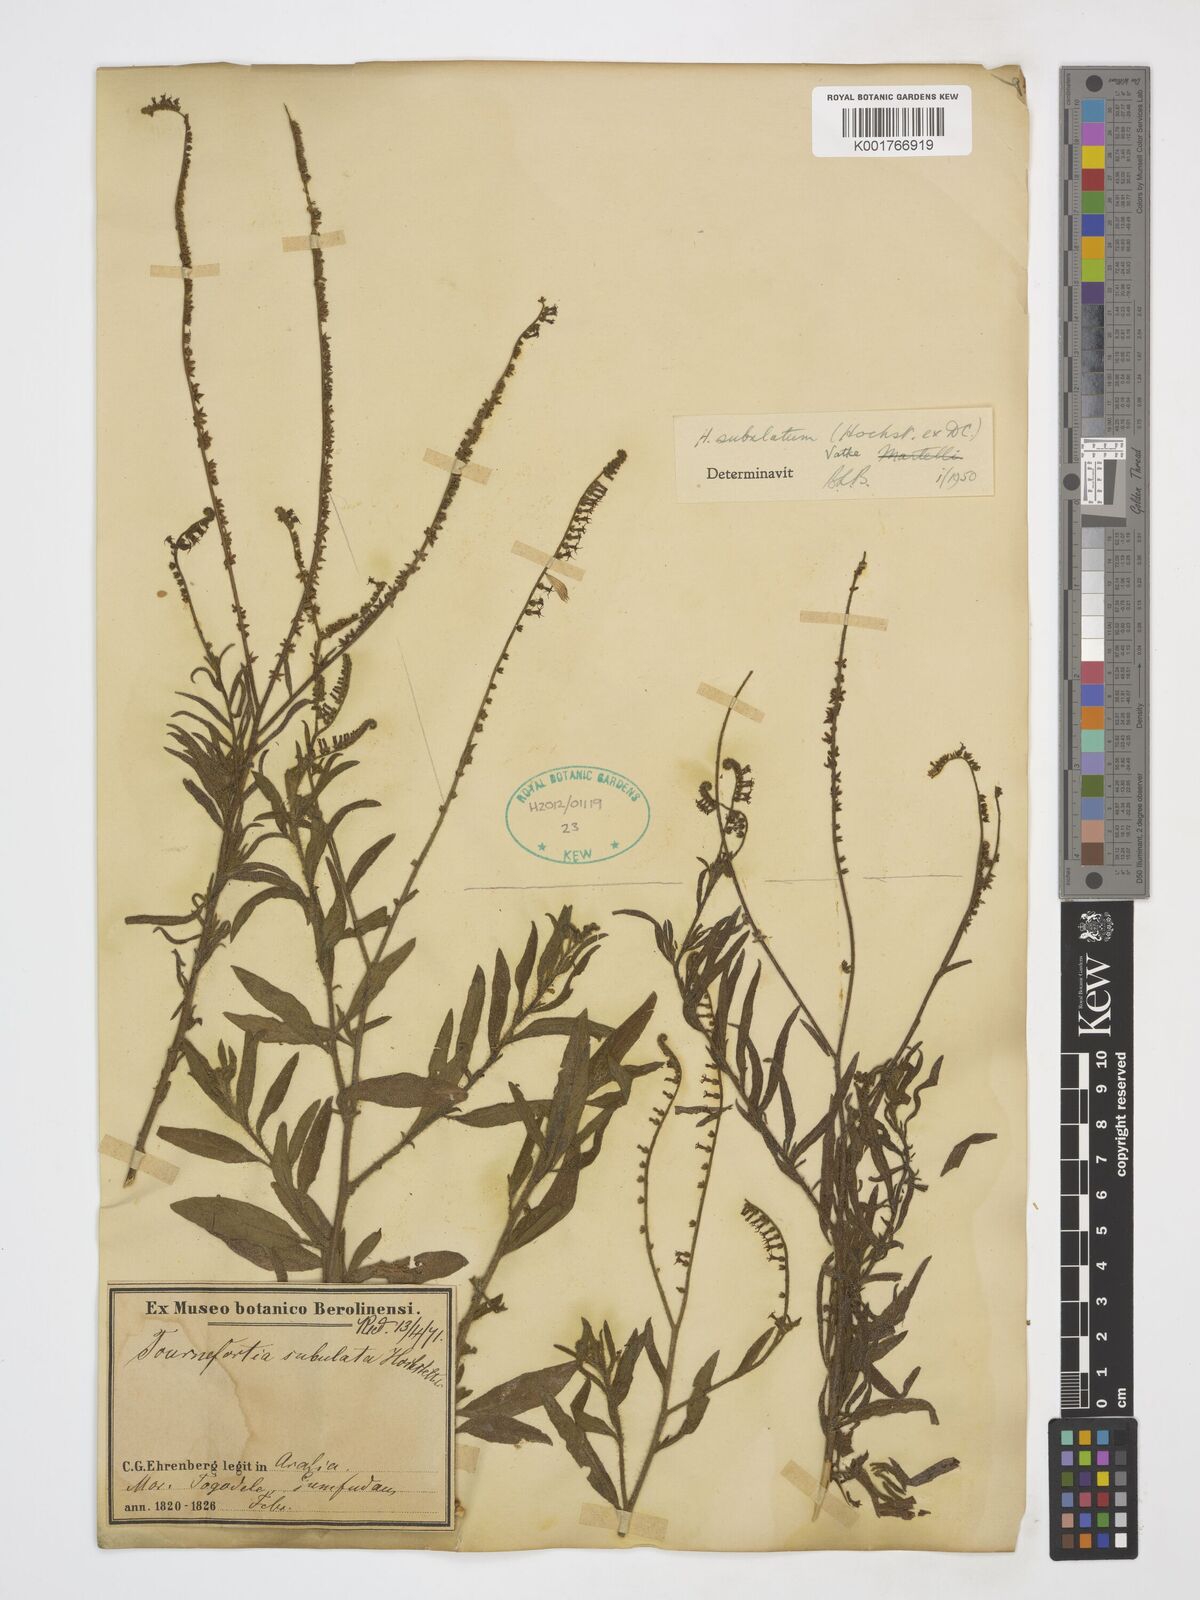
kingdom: Plantae
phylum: Tracheophyta
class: Magnoliopsida
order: Boraginales
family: Heliotropiaceae
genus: Heliotropium
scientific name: Heliotropium zeylanicum
